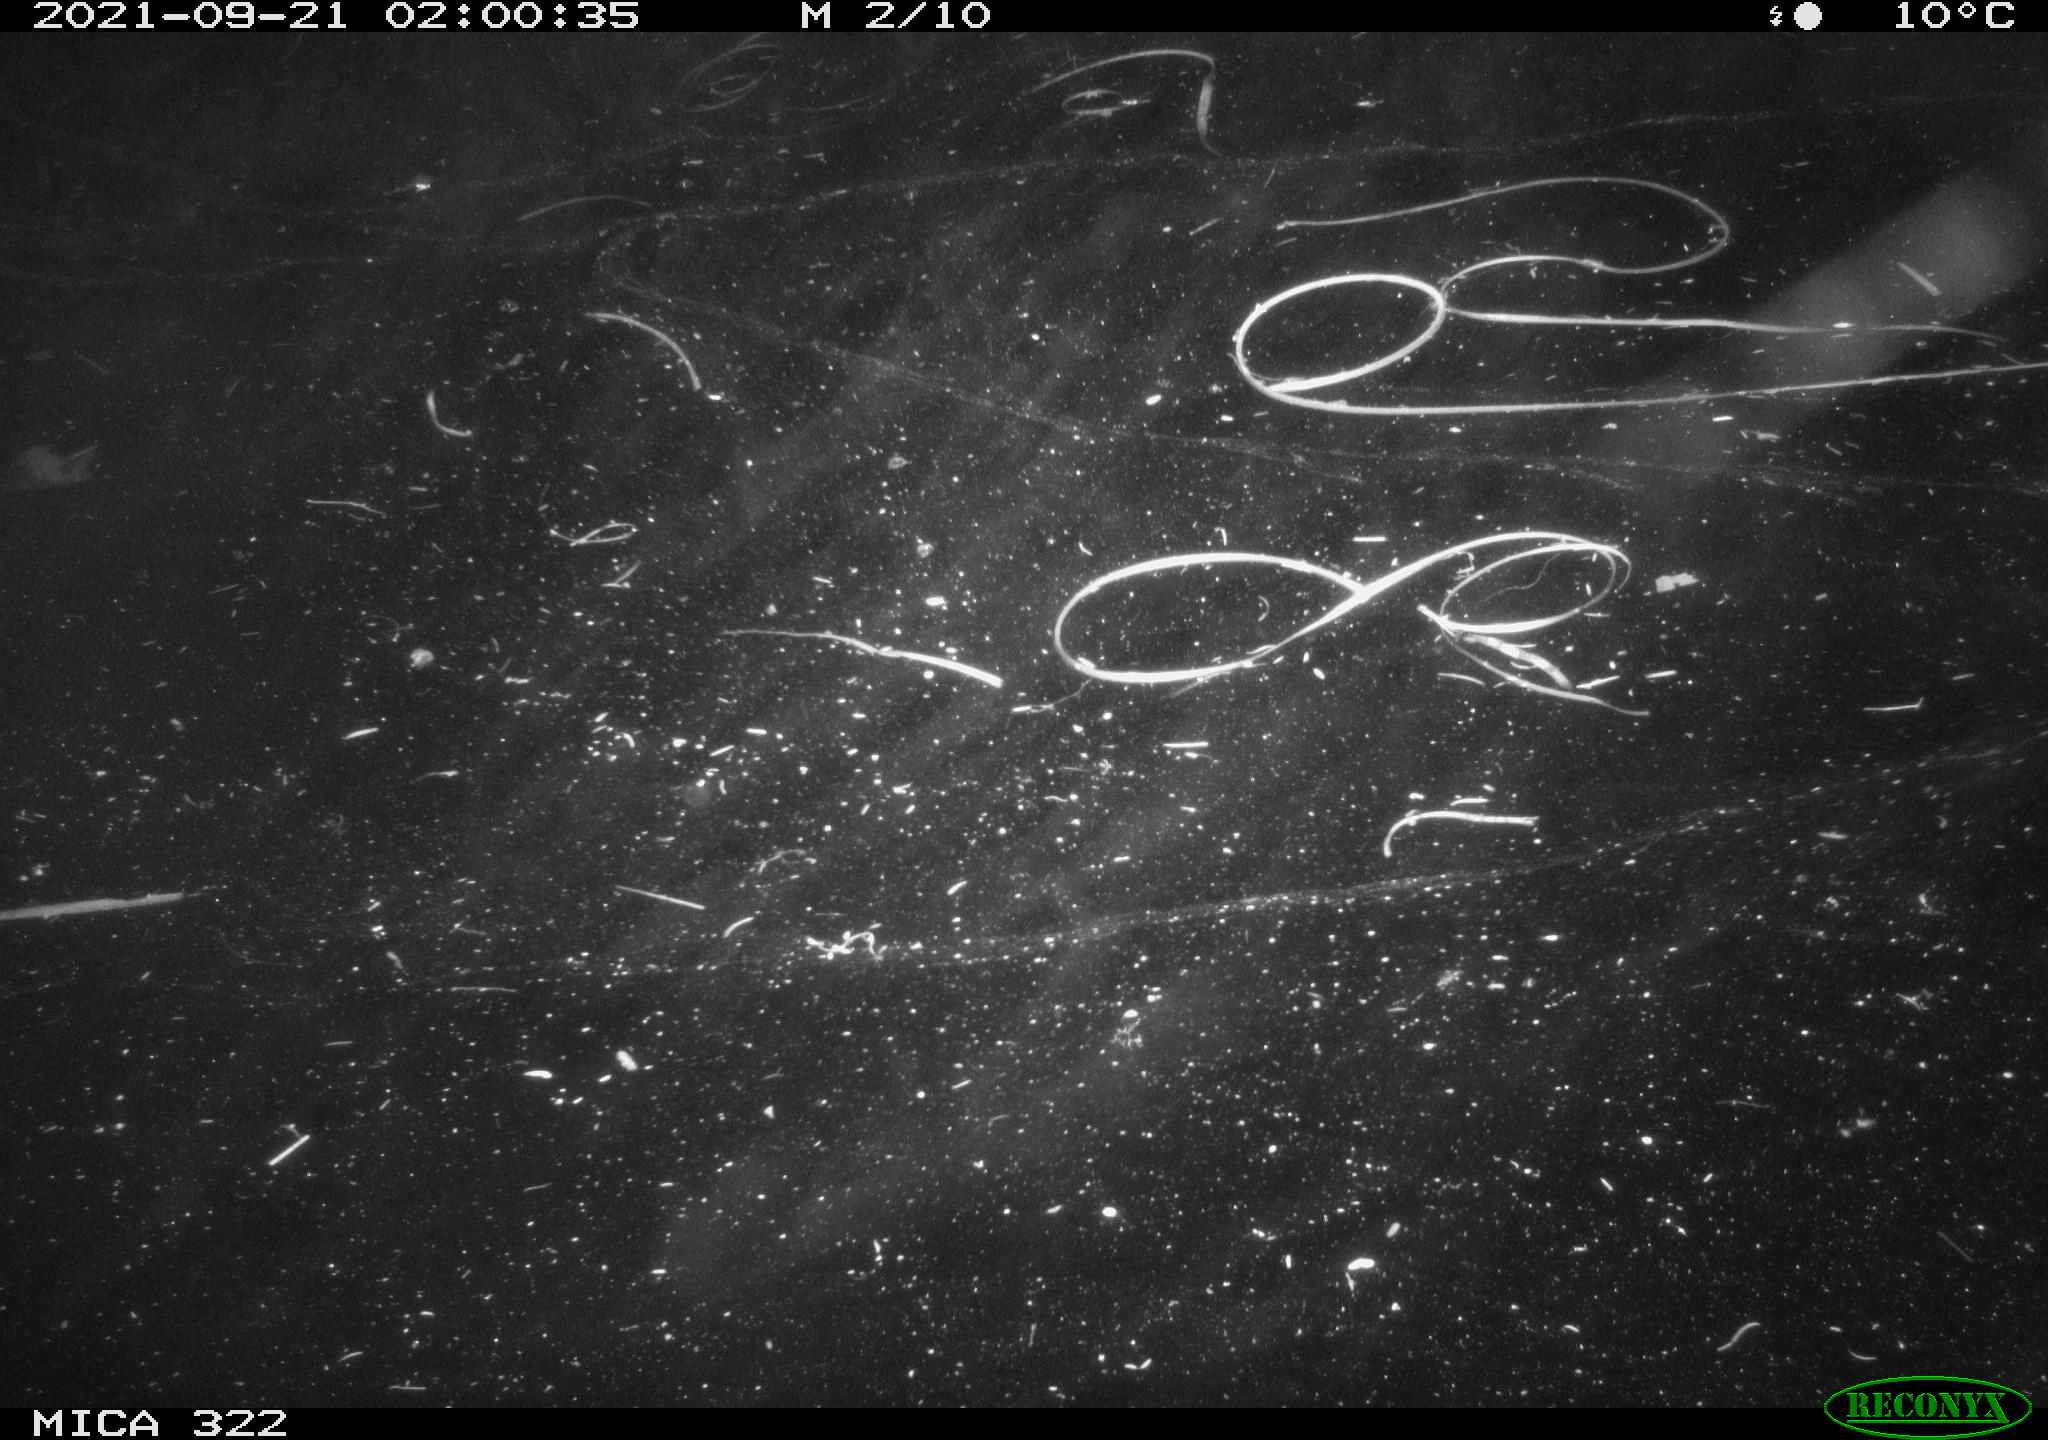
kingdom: Animalia
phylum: Chordata
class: Aves
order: Anseriformes
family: Anatidae
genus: Anas
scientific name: Anas
